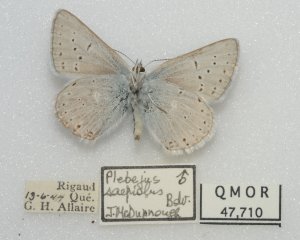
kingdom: Animalia
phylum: Arthropoda
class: Insecta
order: Lepidoptera
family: Lycaenidae
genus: Plebejus
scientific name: Plebejus saepiolus
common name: Greenish Blue
